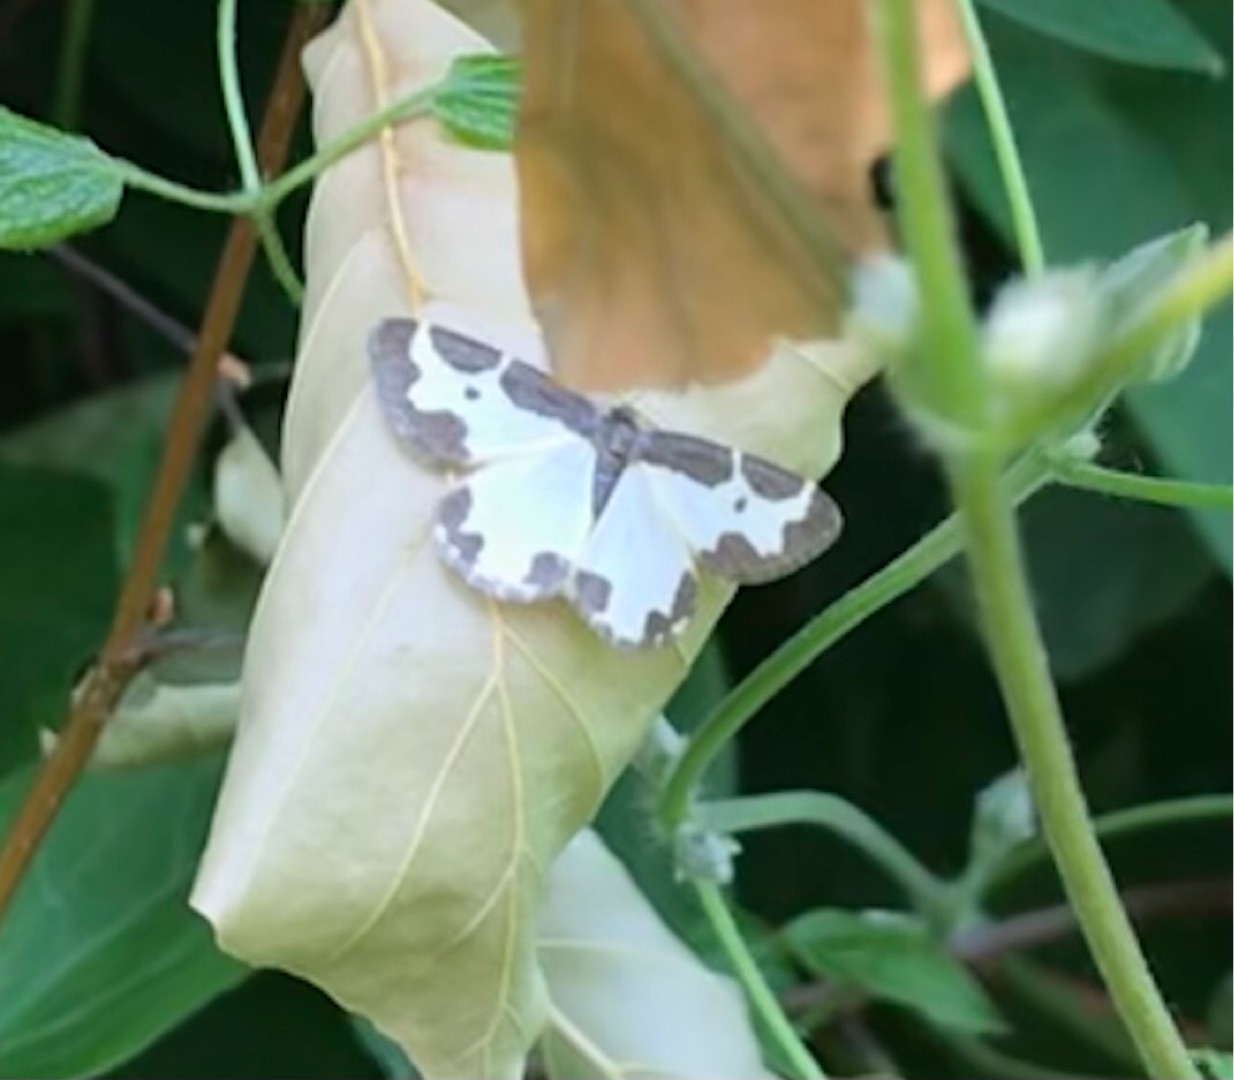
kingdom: Animalia
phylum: Arthropoda
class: Insecta
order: Lepidoptera
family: Geometridae
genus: Lomaspilis
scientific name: Lomaspilis marginata
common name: Sortrandet måler
